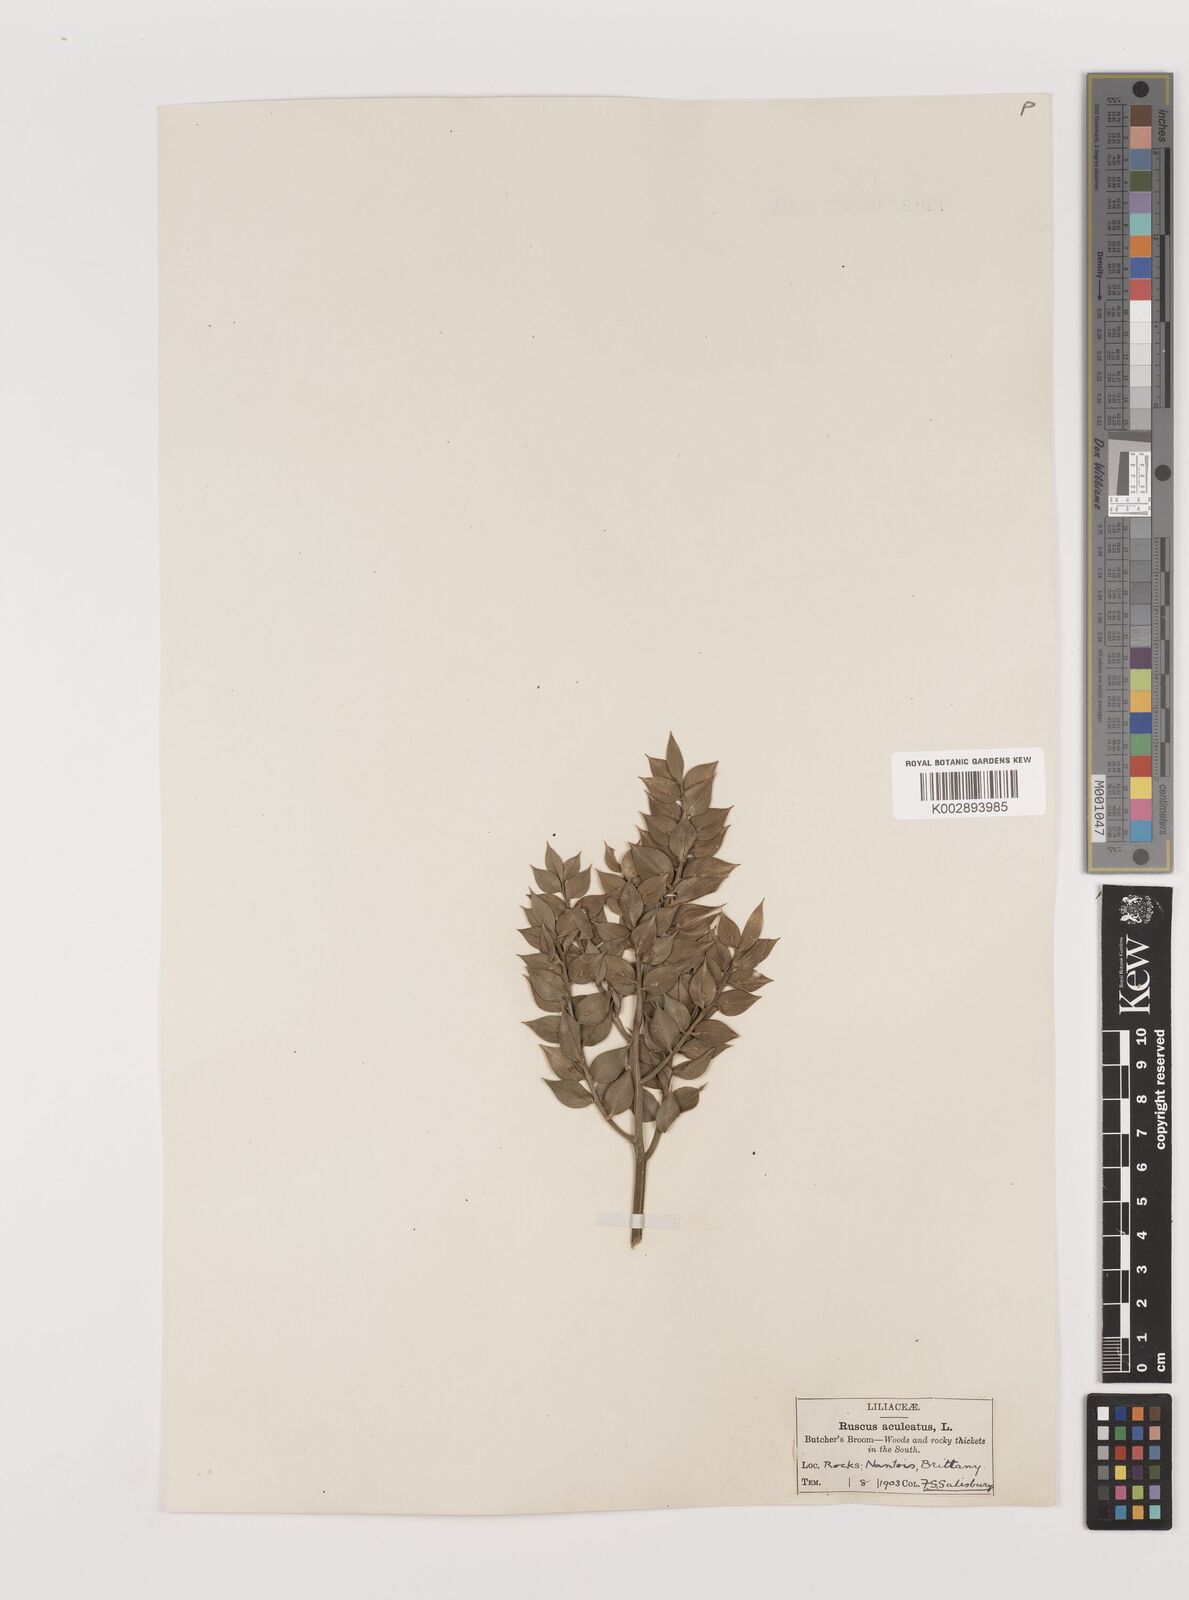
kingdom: Plantae
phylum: Tracheophyta
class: Liliopsida
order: Asparagales
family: Asparagaceae
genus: Ruscus
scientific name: Ruscus aculeatus
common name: Butcher's-broom
